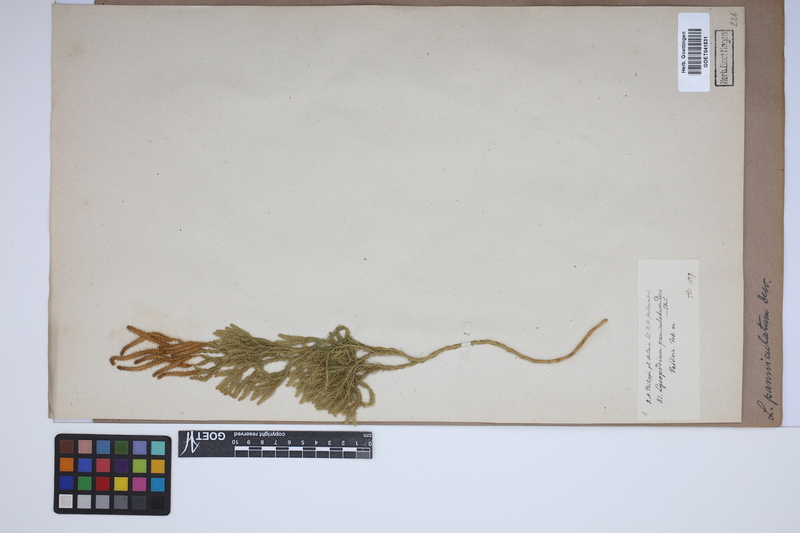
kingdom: Plantae
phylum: Tracheophyta
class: Lycopodiopsida
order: Lycopodiales
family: Lycopodiaceae
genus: Austrolycopodium
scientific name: Austrolycopodium paniculatum
